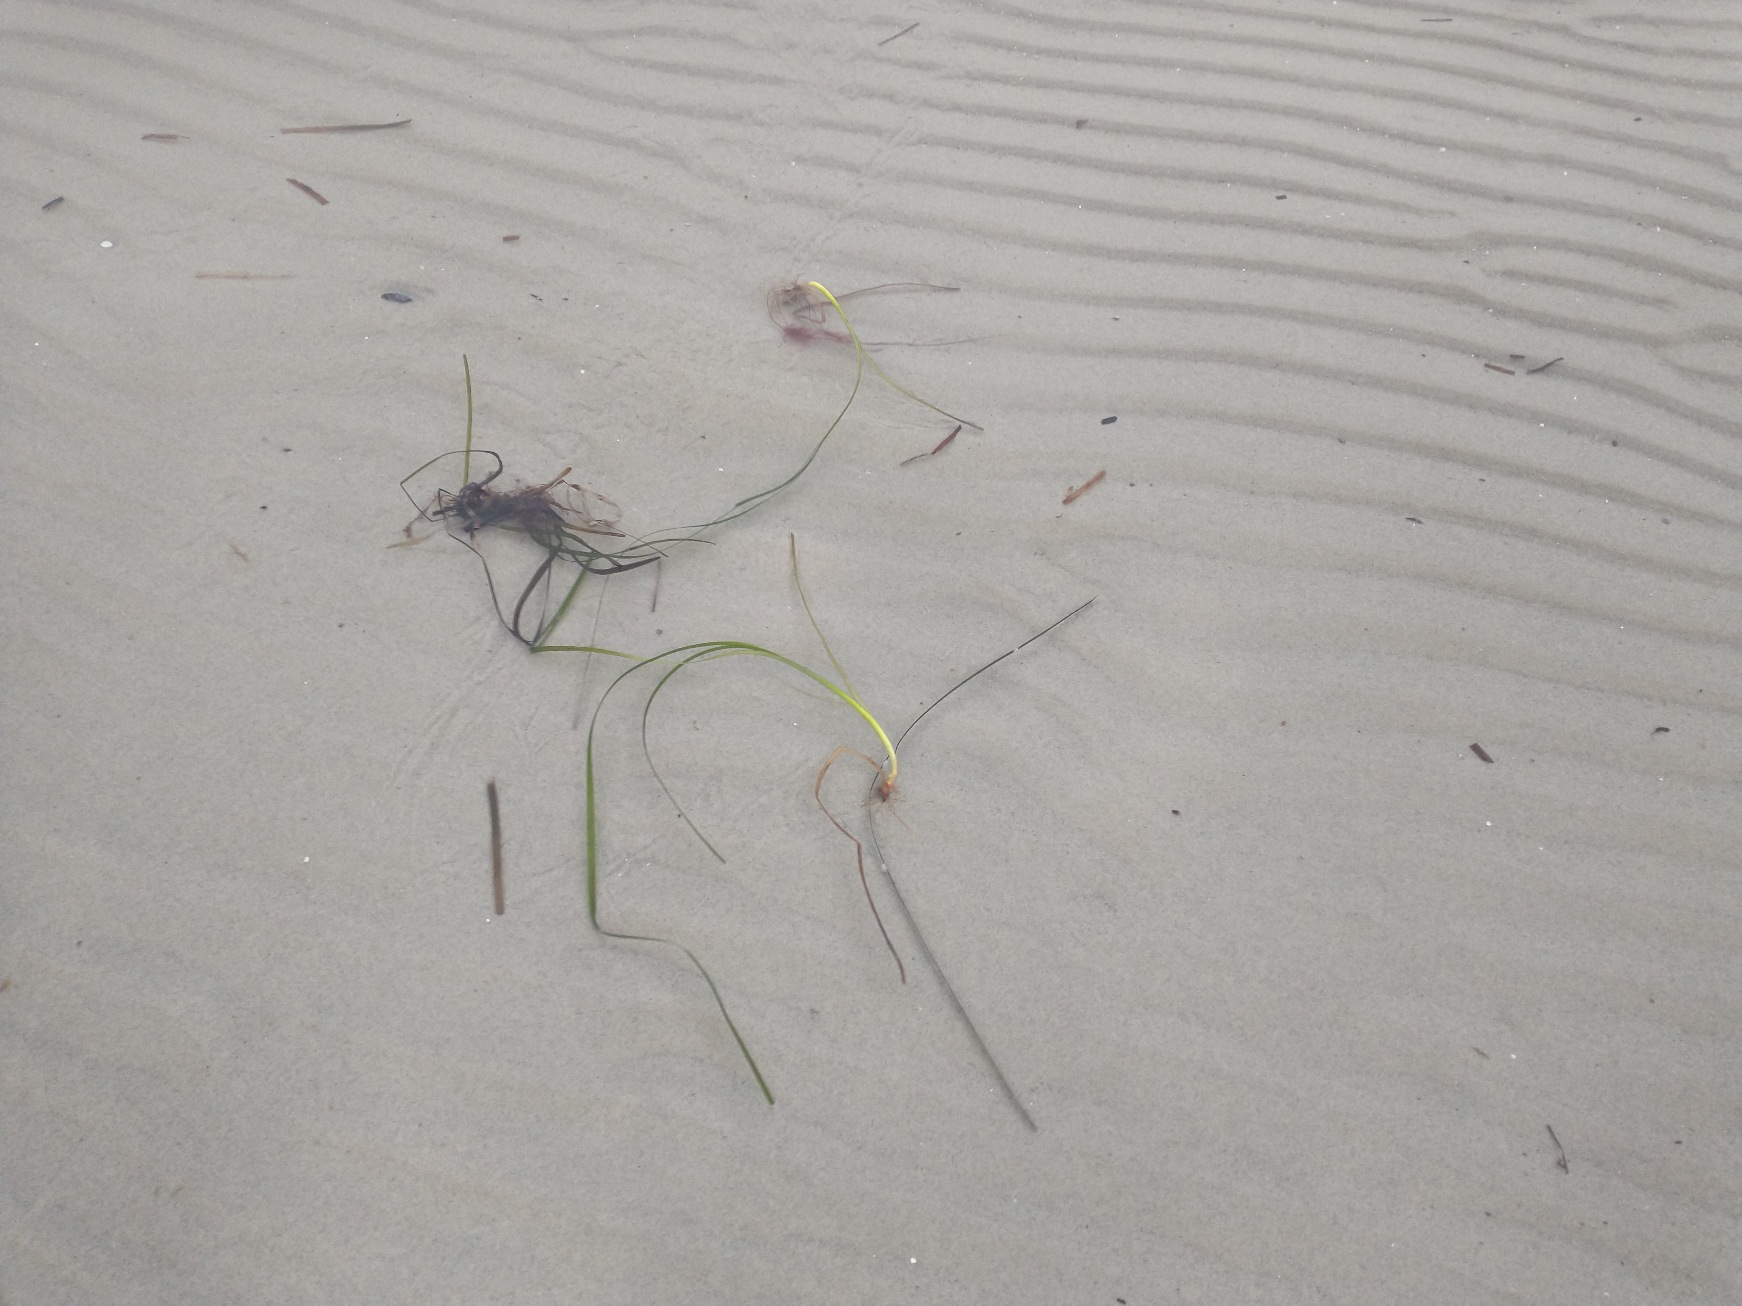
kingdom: Plantae
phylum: Tracheophyta
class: Liliopsida
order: Alismatales
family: Zosteraceae
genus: Zostera
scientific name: Zostera marina
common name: Almindelig bændeltang
